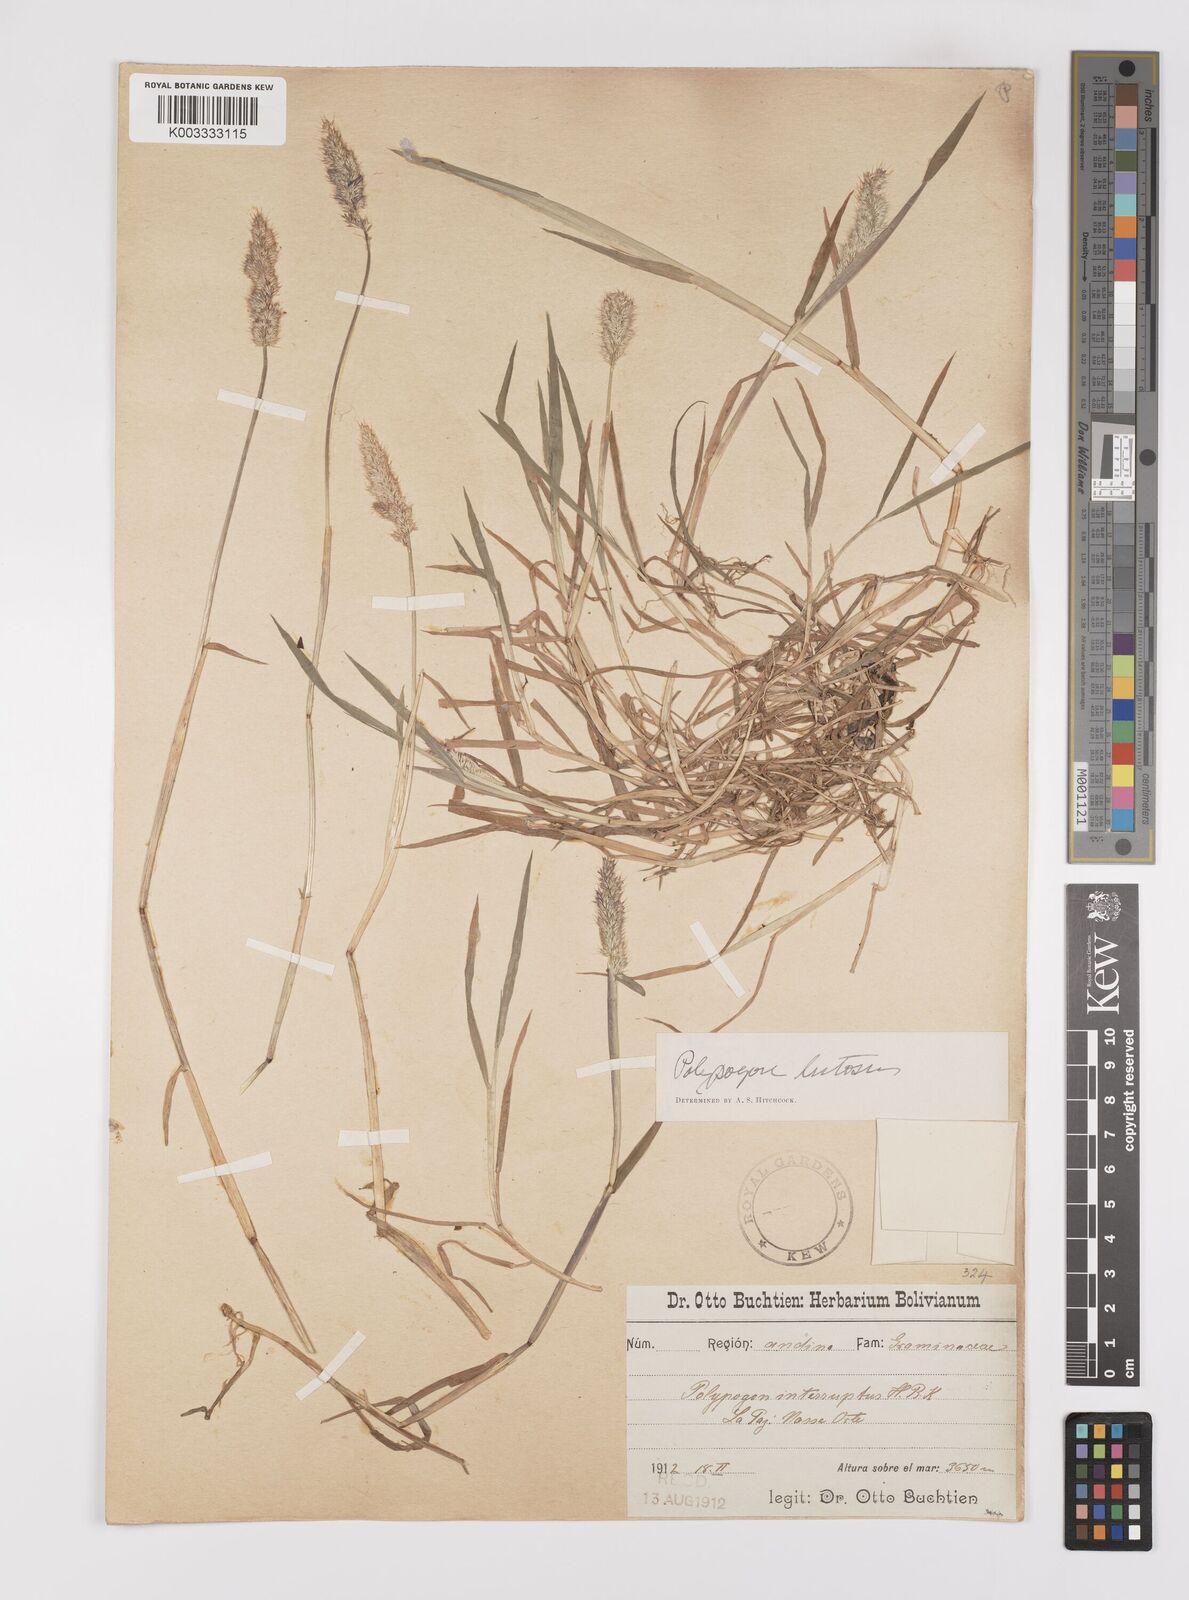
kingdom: Plantae
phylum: Tracheophyta
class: Liliopsida
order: Poales
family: Poaceae
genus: Polypogon
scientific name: Polypogon interruptus
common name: Ditch polypogon
